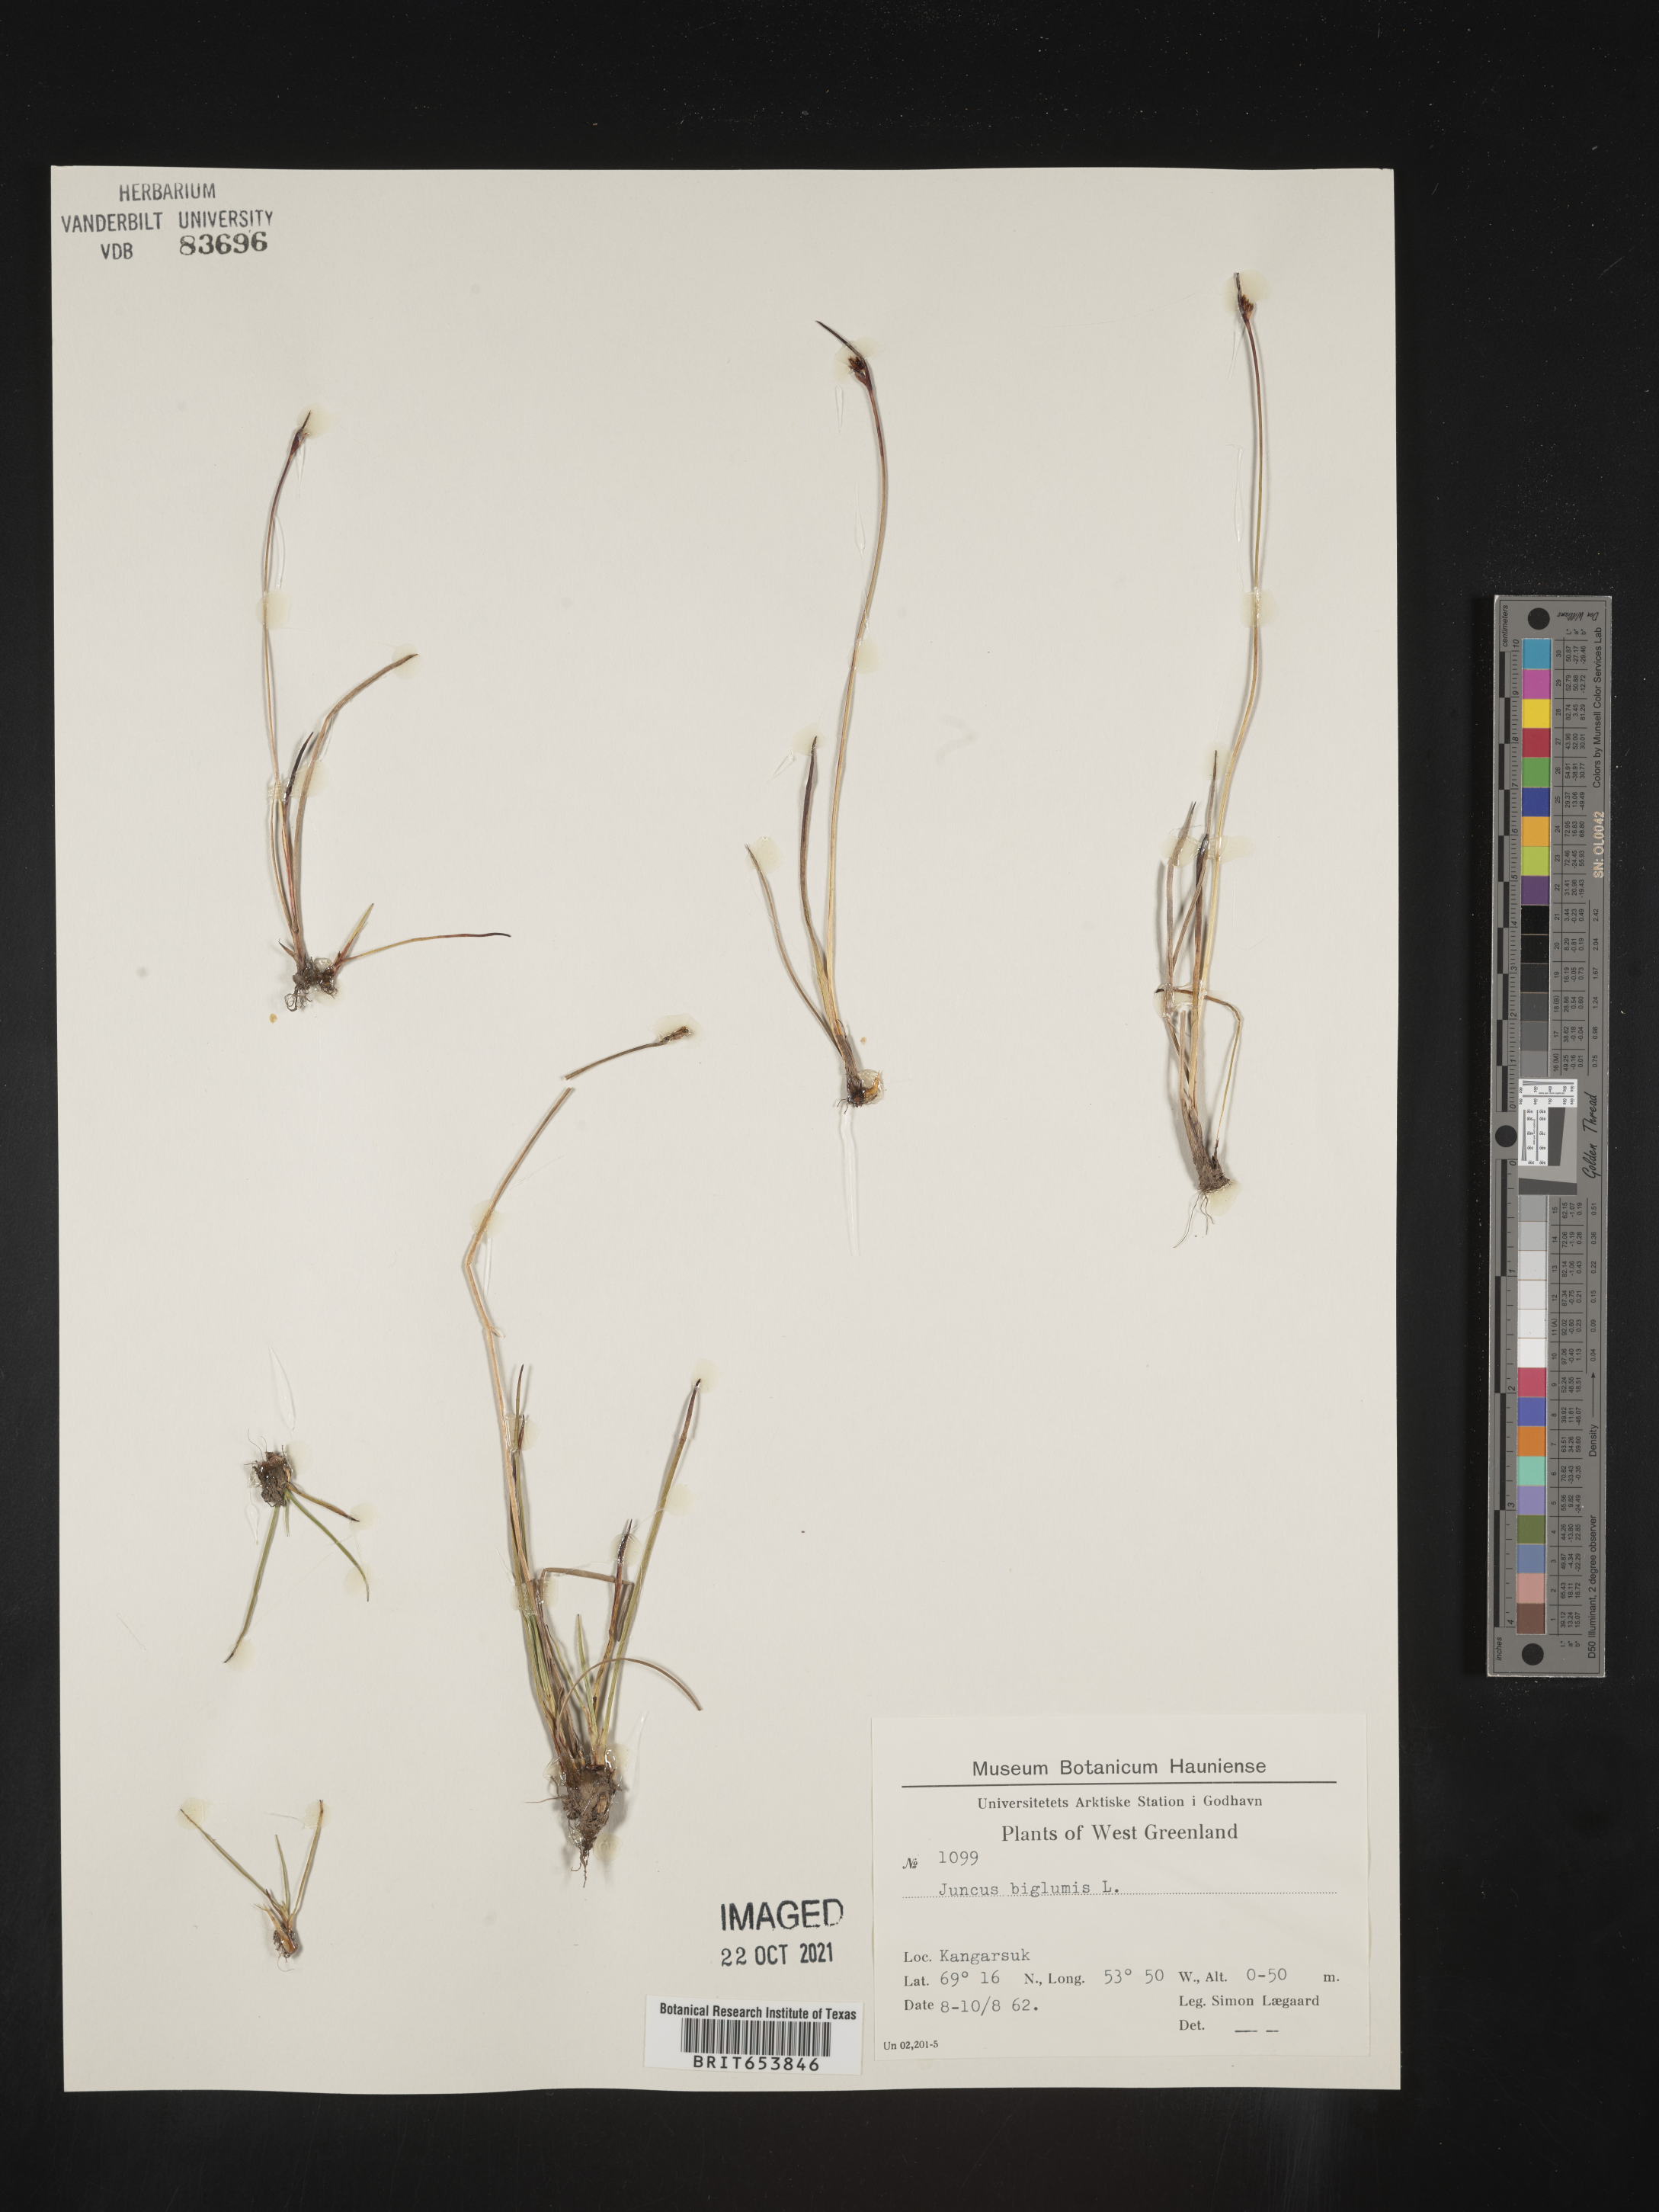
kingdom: Plantae
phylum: Tracheophyta
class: Liliopsida
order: Poales
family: Juncaceae
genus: Juncus
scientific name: Juncus
